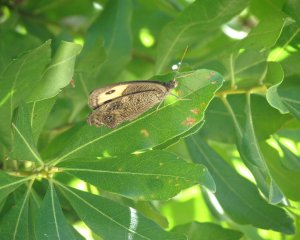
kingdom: Animalia
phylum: Arthropoda
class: Insecta
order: Lepidoptera
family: Nymphalidae
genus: Cercyonis
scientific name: Cercyonis pegala
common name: Common Wood-Nymph
